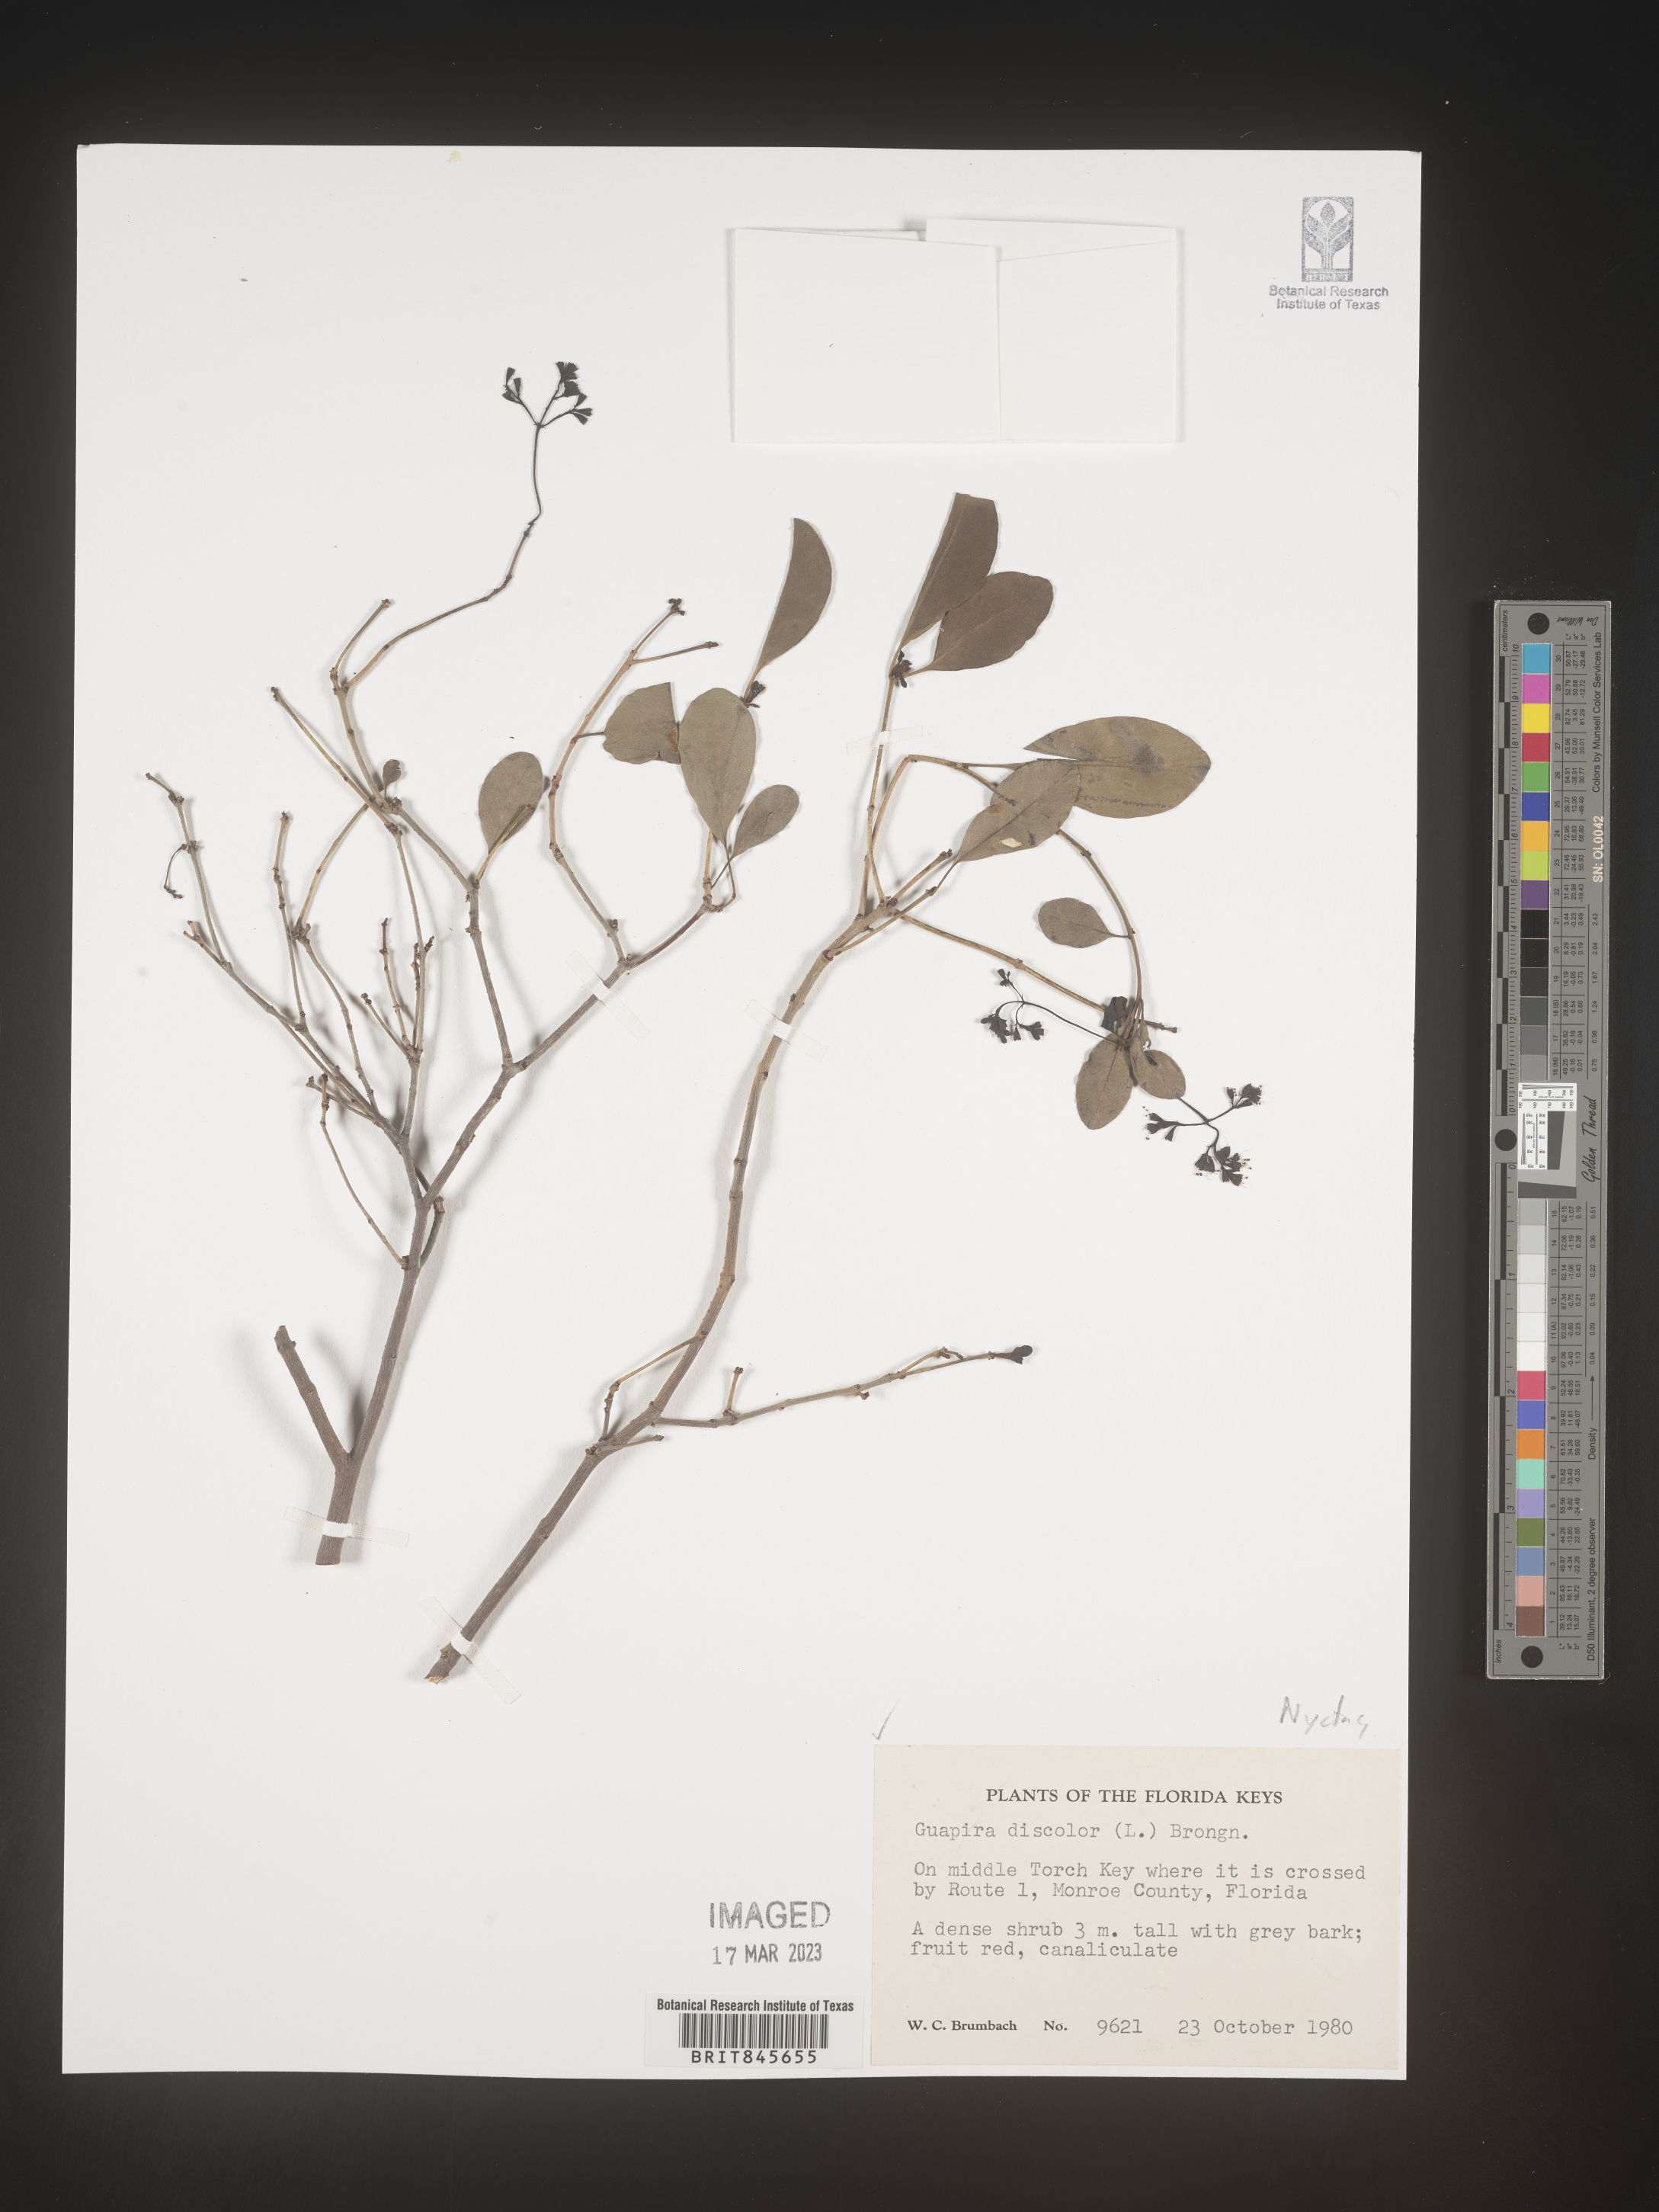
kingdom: Plantae
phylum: Tracheophyta
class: Magnoliopsida
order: Caryophyllales
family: Nyctaginaceae
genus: Guapira
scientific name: Guapira discolor
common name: Beeftree
